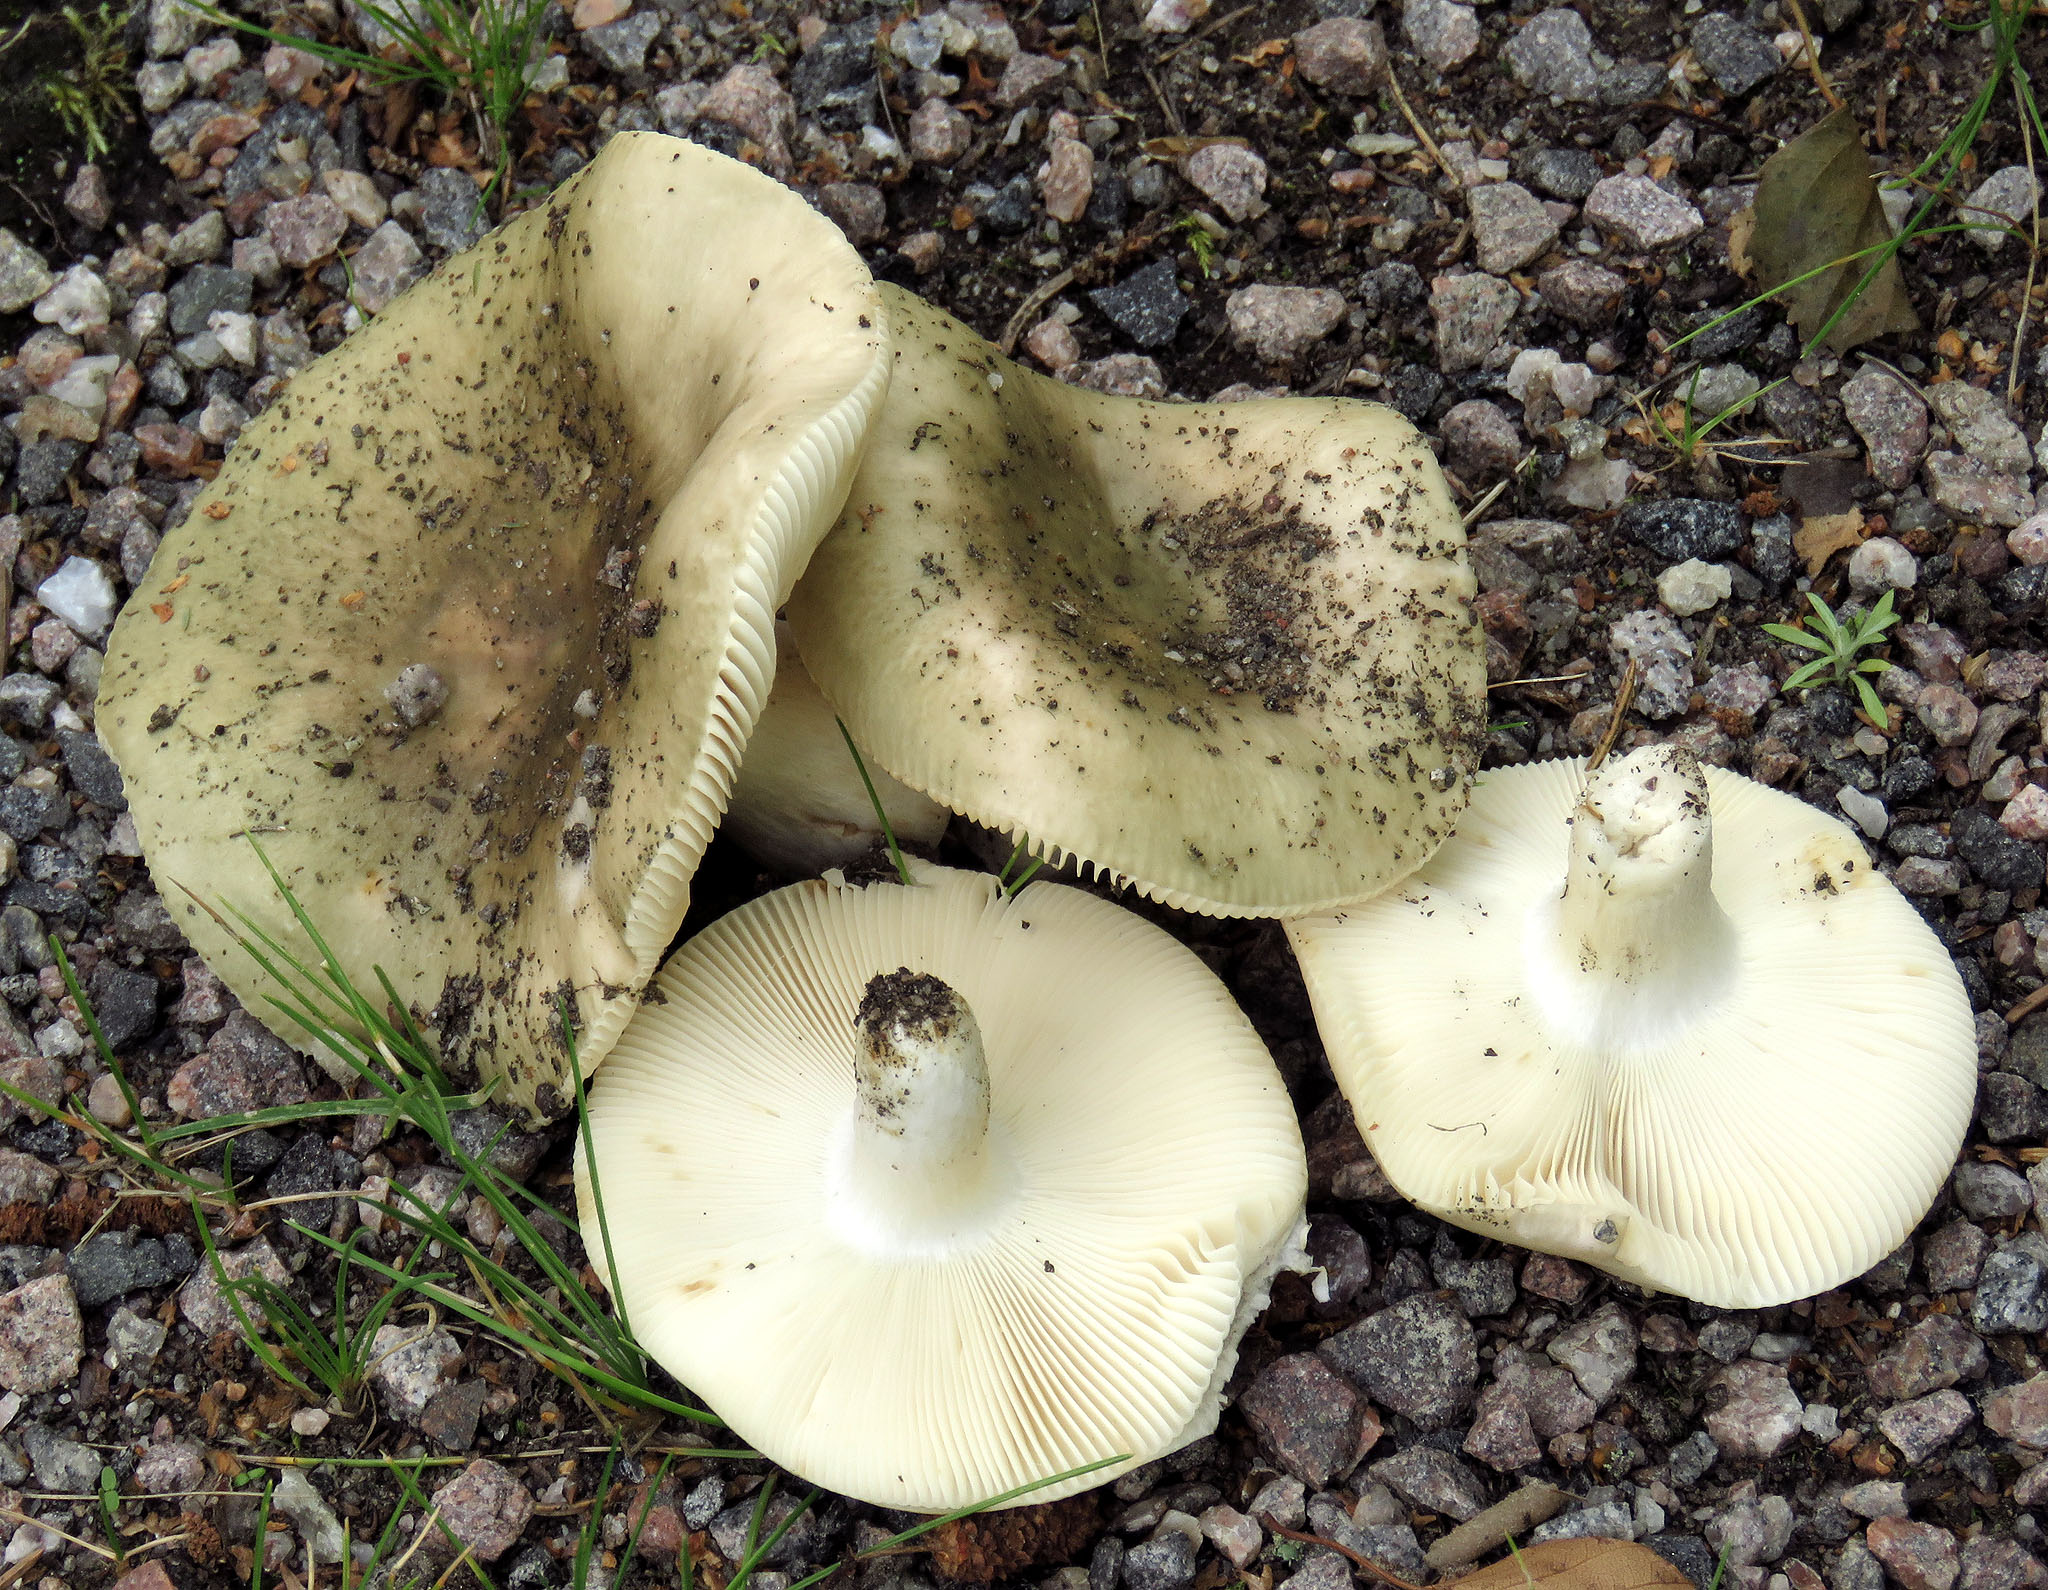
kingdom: Fungi
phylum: Basidiomycota
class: Agaricomycetes
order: Russulales
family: Russulaceae
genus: Russula
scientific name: Russula aeruginea
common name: Green brittlegill
